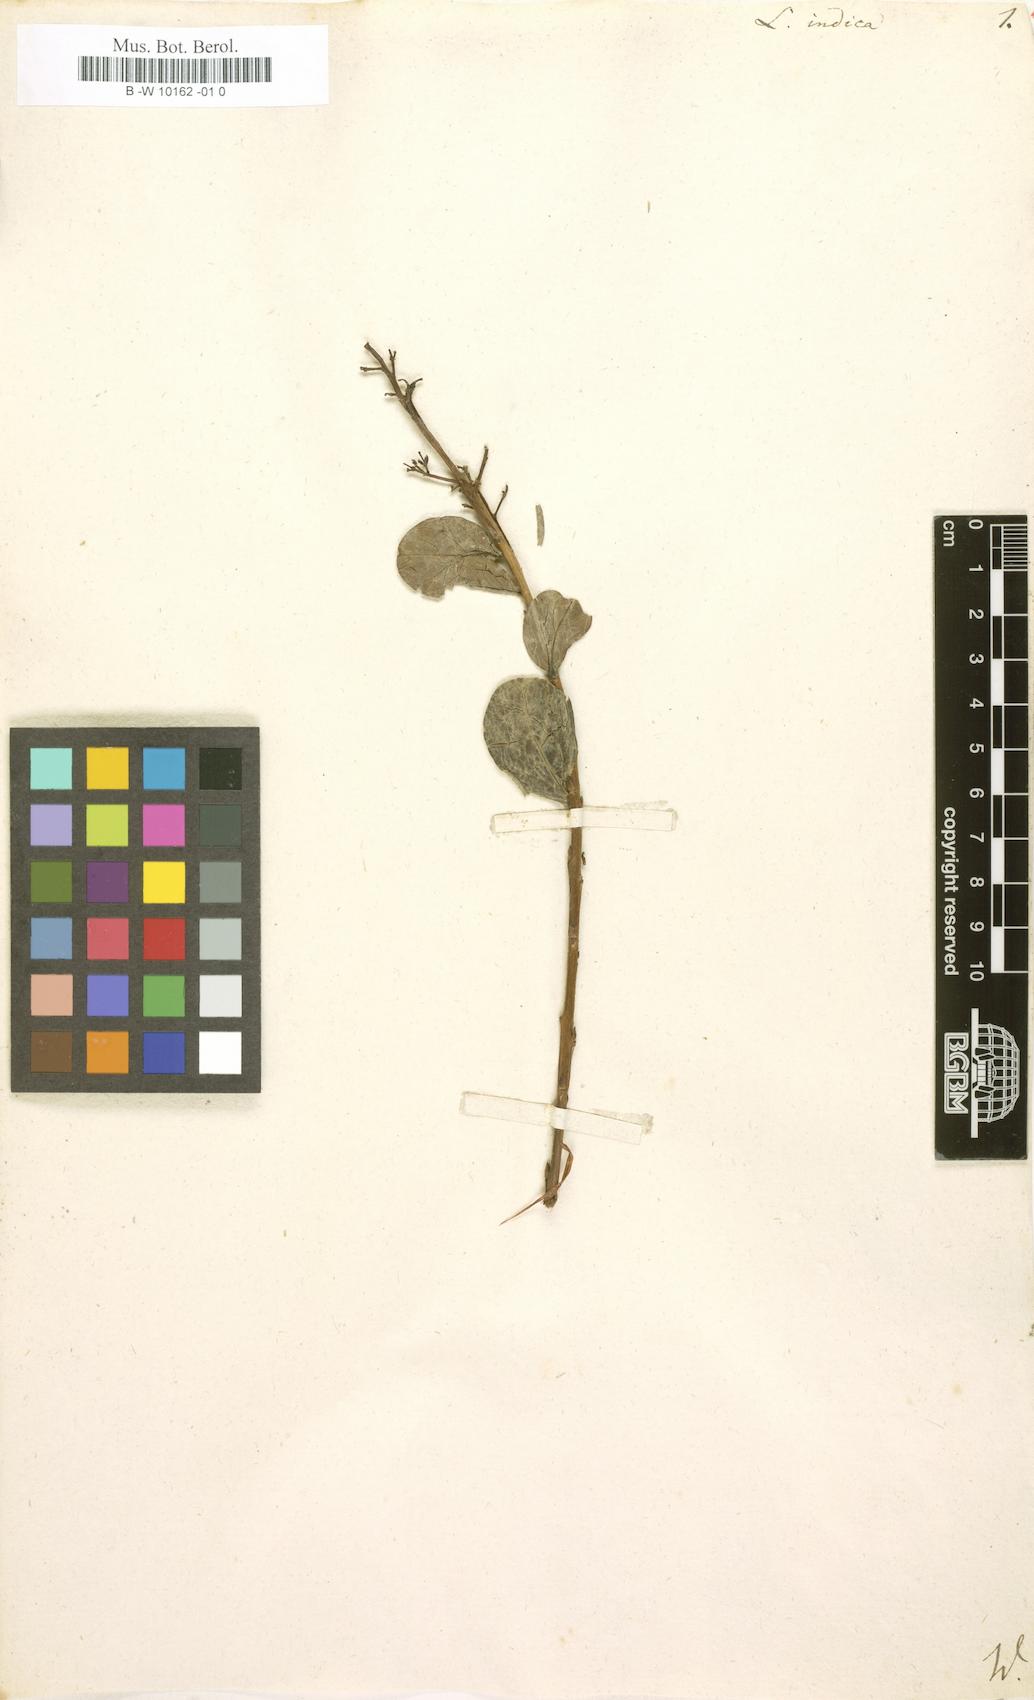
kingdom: Plantae
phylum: Tracheophyta
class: Magnoliopsida
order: Myrtales
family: Lythraceae
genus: Lagerstroemia
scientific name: Lagerstroemia indica
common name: Crape-myrtle
